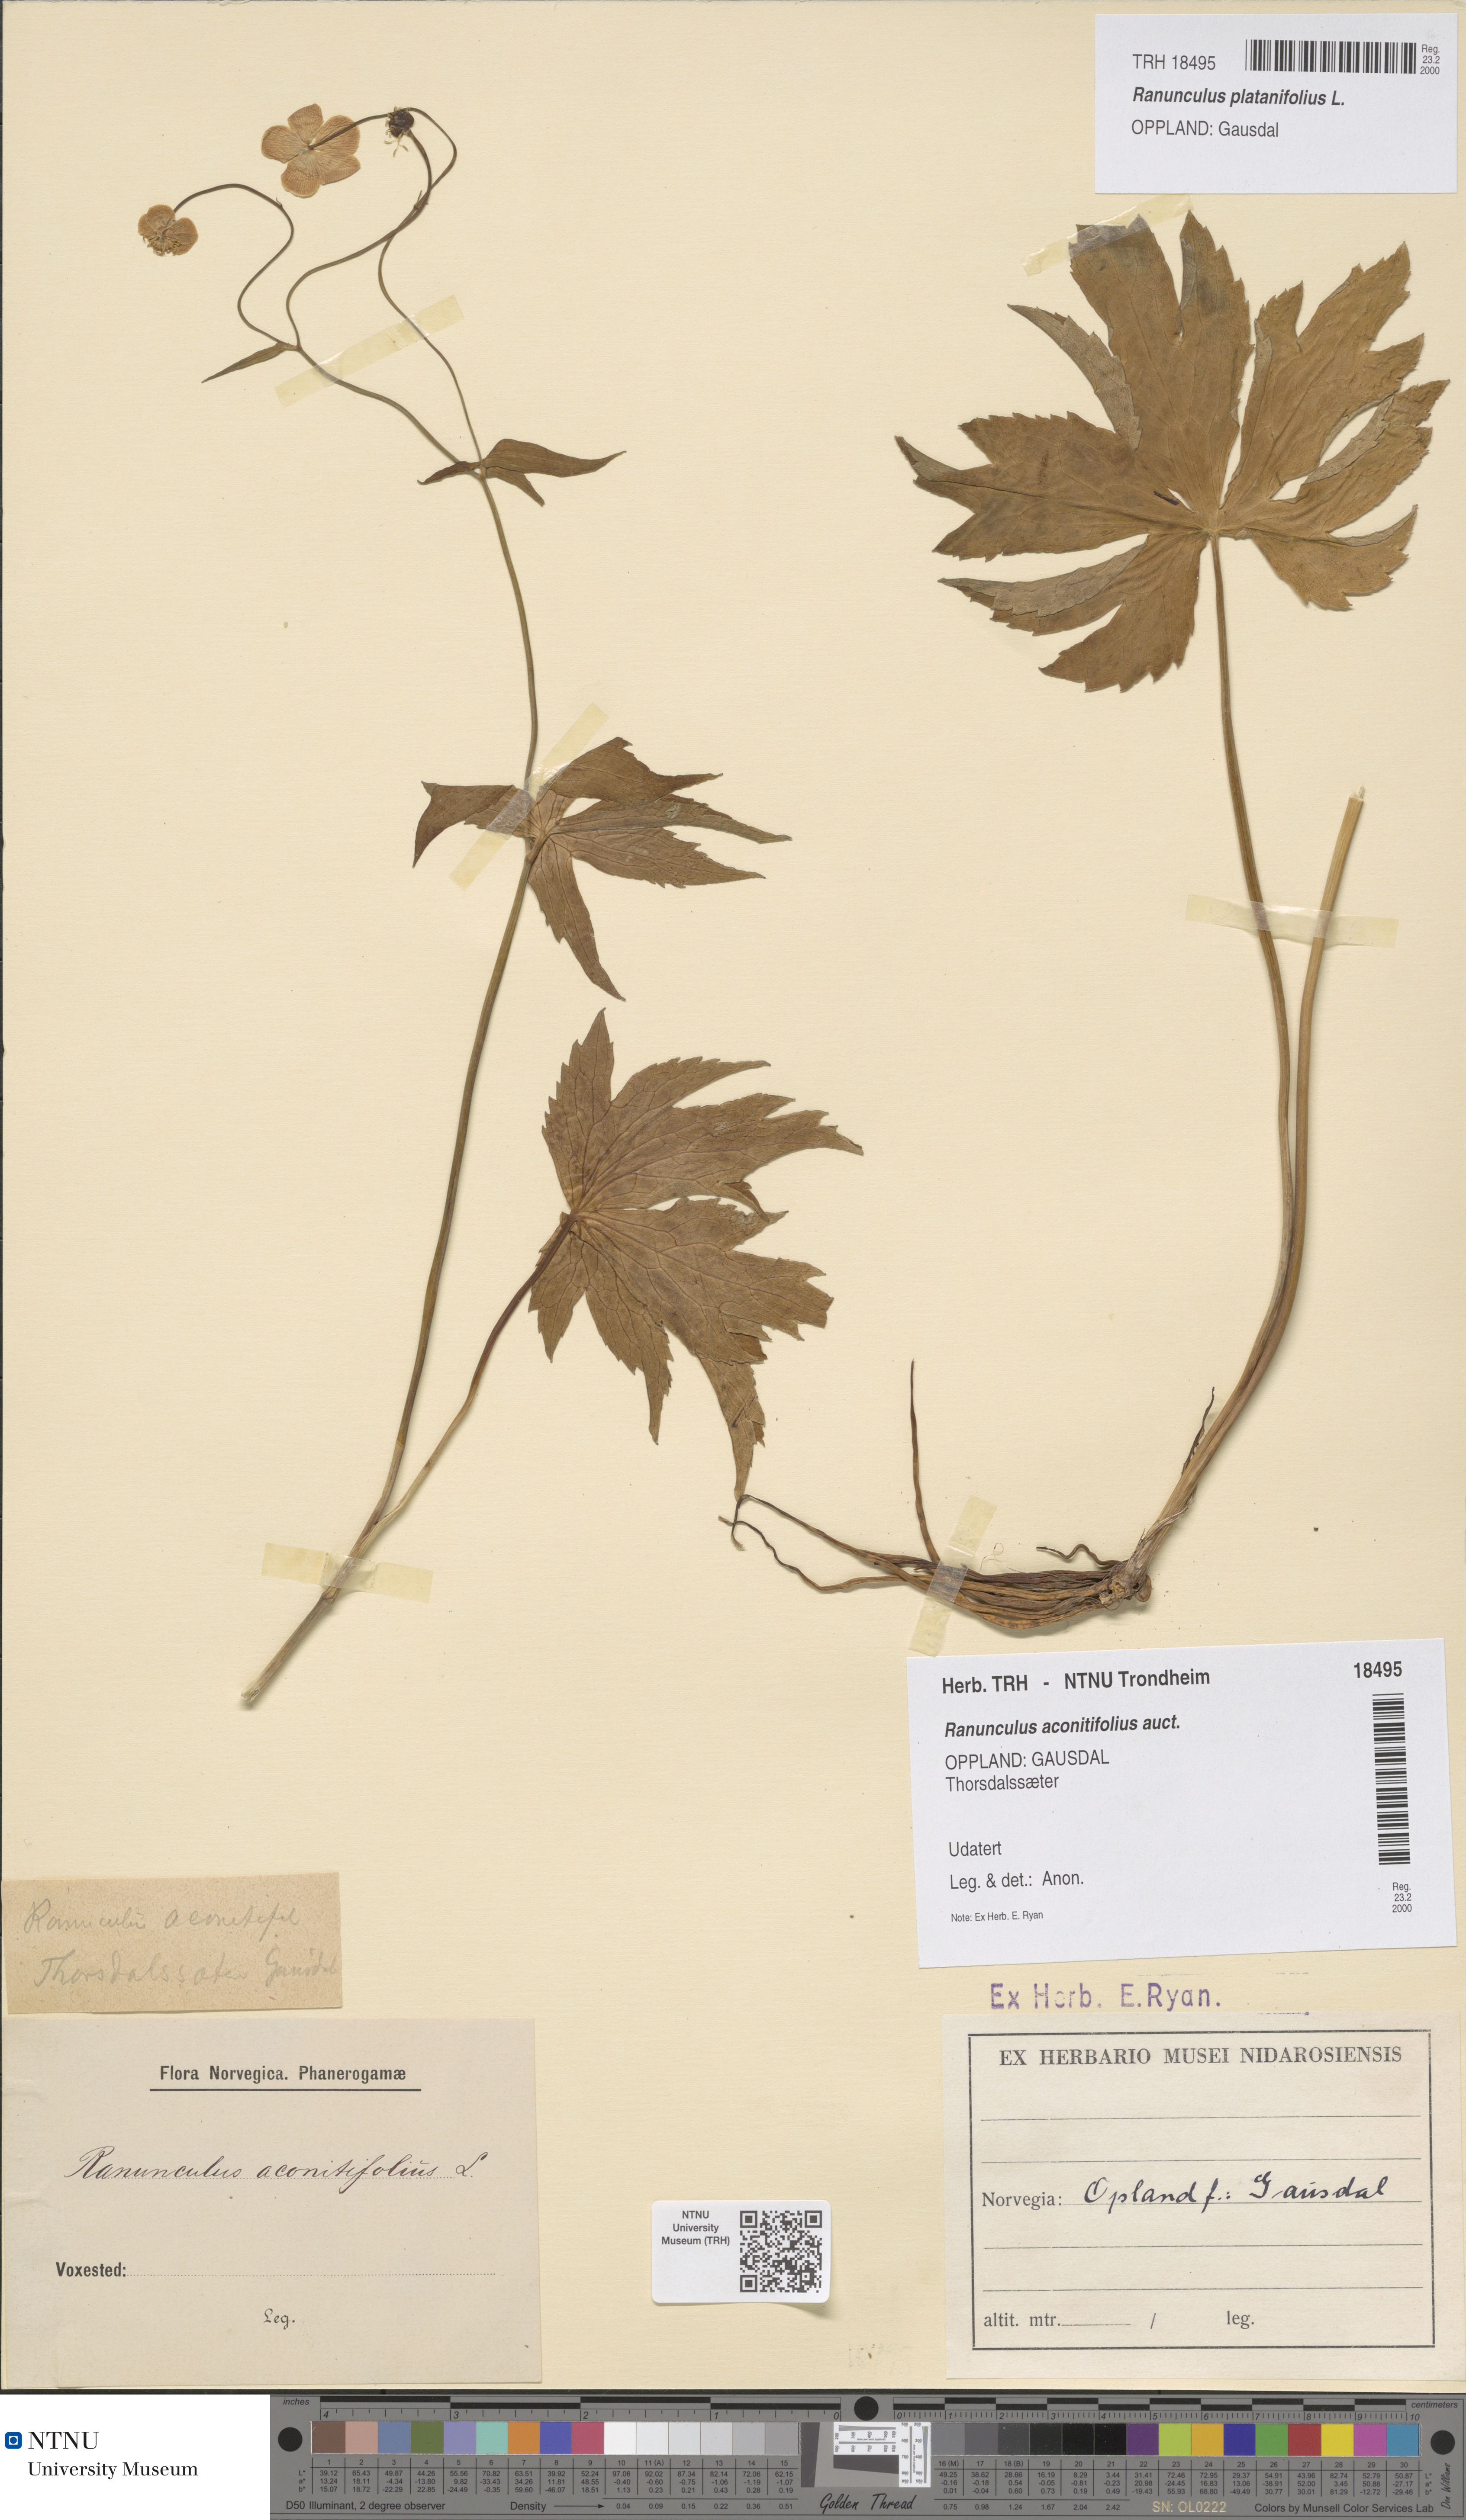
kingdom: Plantae
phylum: Tracheophyta
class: Magnoliopsida
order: Ranunculales
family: Ranunculaceae
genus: Ranunculus
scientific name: Ranunculus platanifolius
